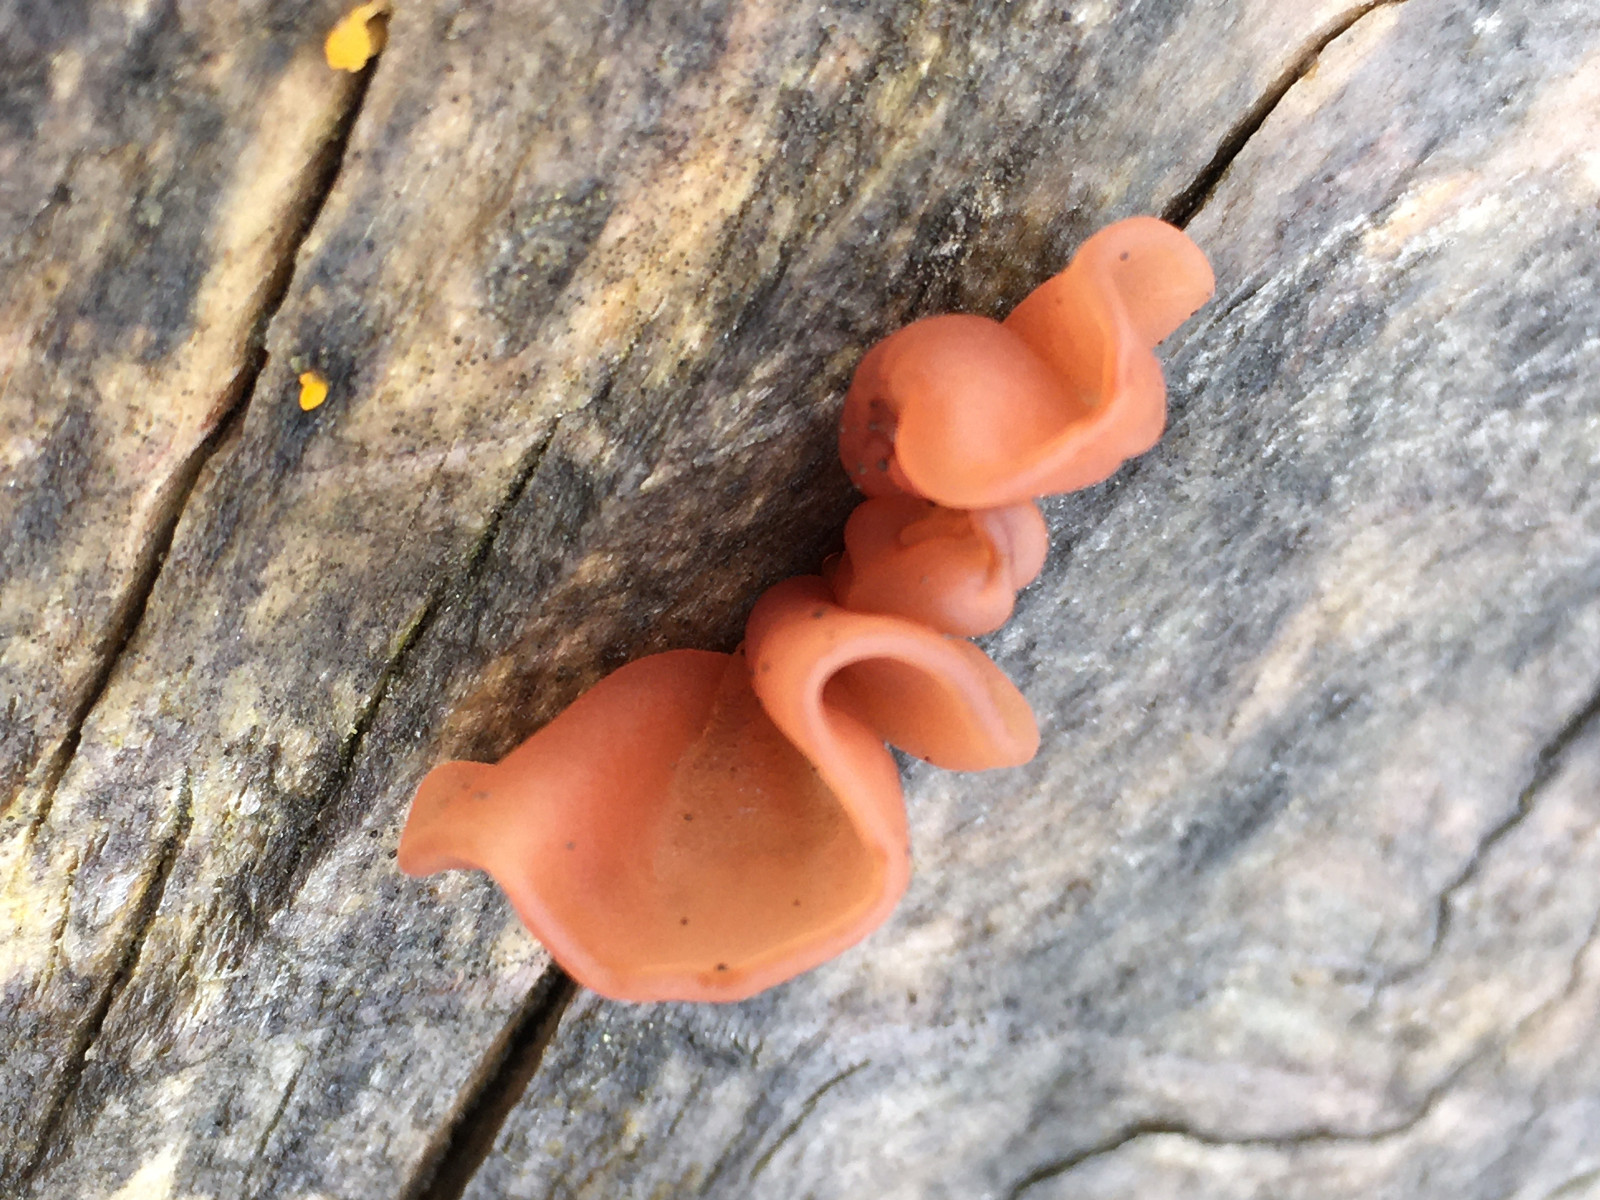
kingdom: Fungi
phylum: Basidiomycota
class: Agaricomycetes
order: Auriculariales
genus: Guepinia
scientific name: Guepinia helvelloides
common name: bævretunge
